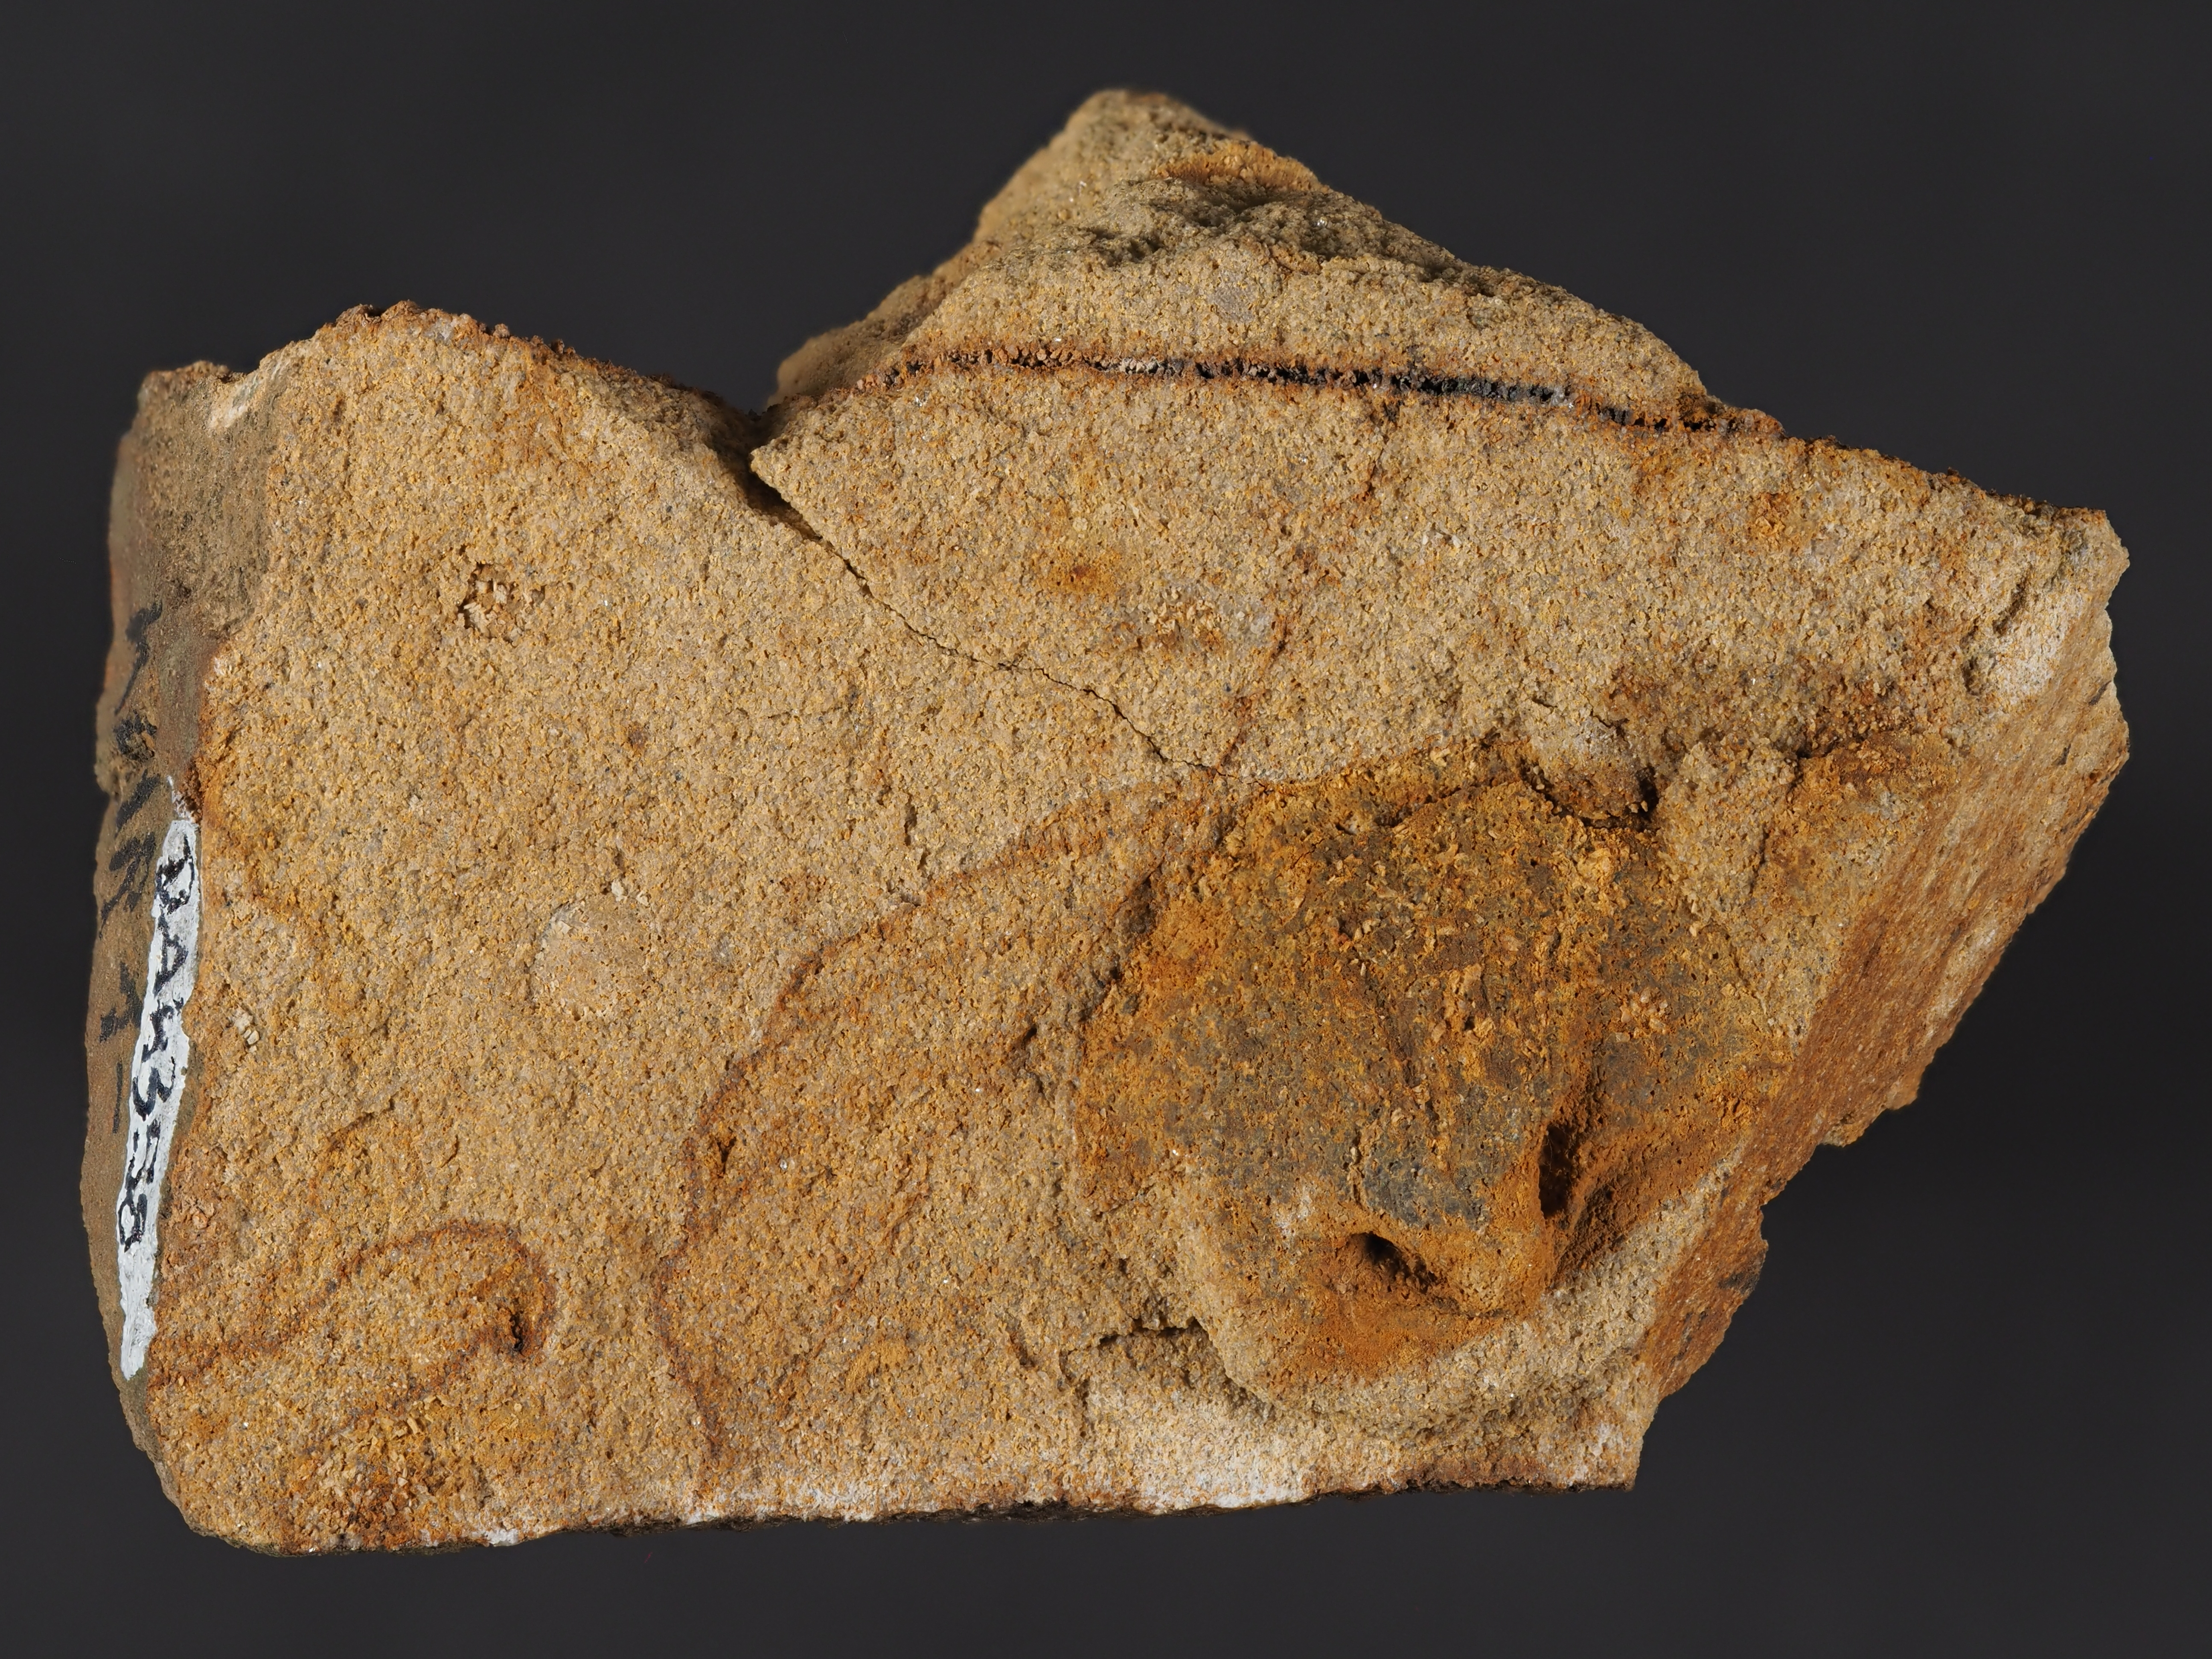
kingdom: Animalia
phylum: Brachiopoda
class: Rhynchonellata
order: Terebratulida
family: Tropidoleptidae
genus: Tropidoleptus
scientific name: Tropidoleptus
